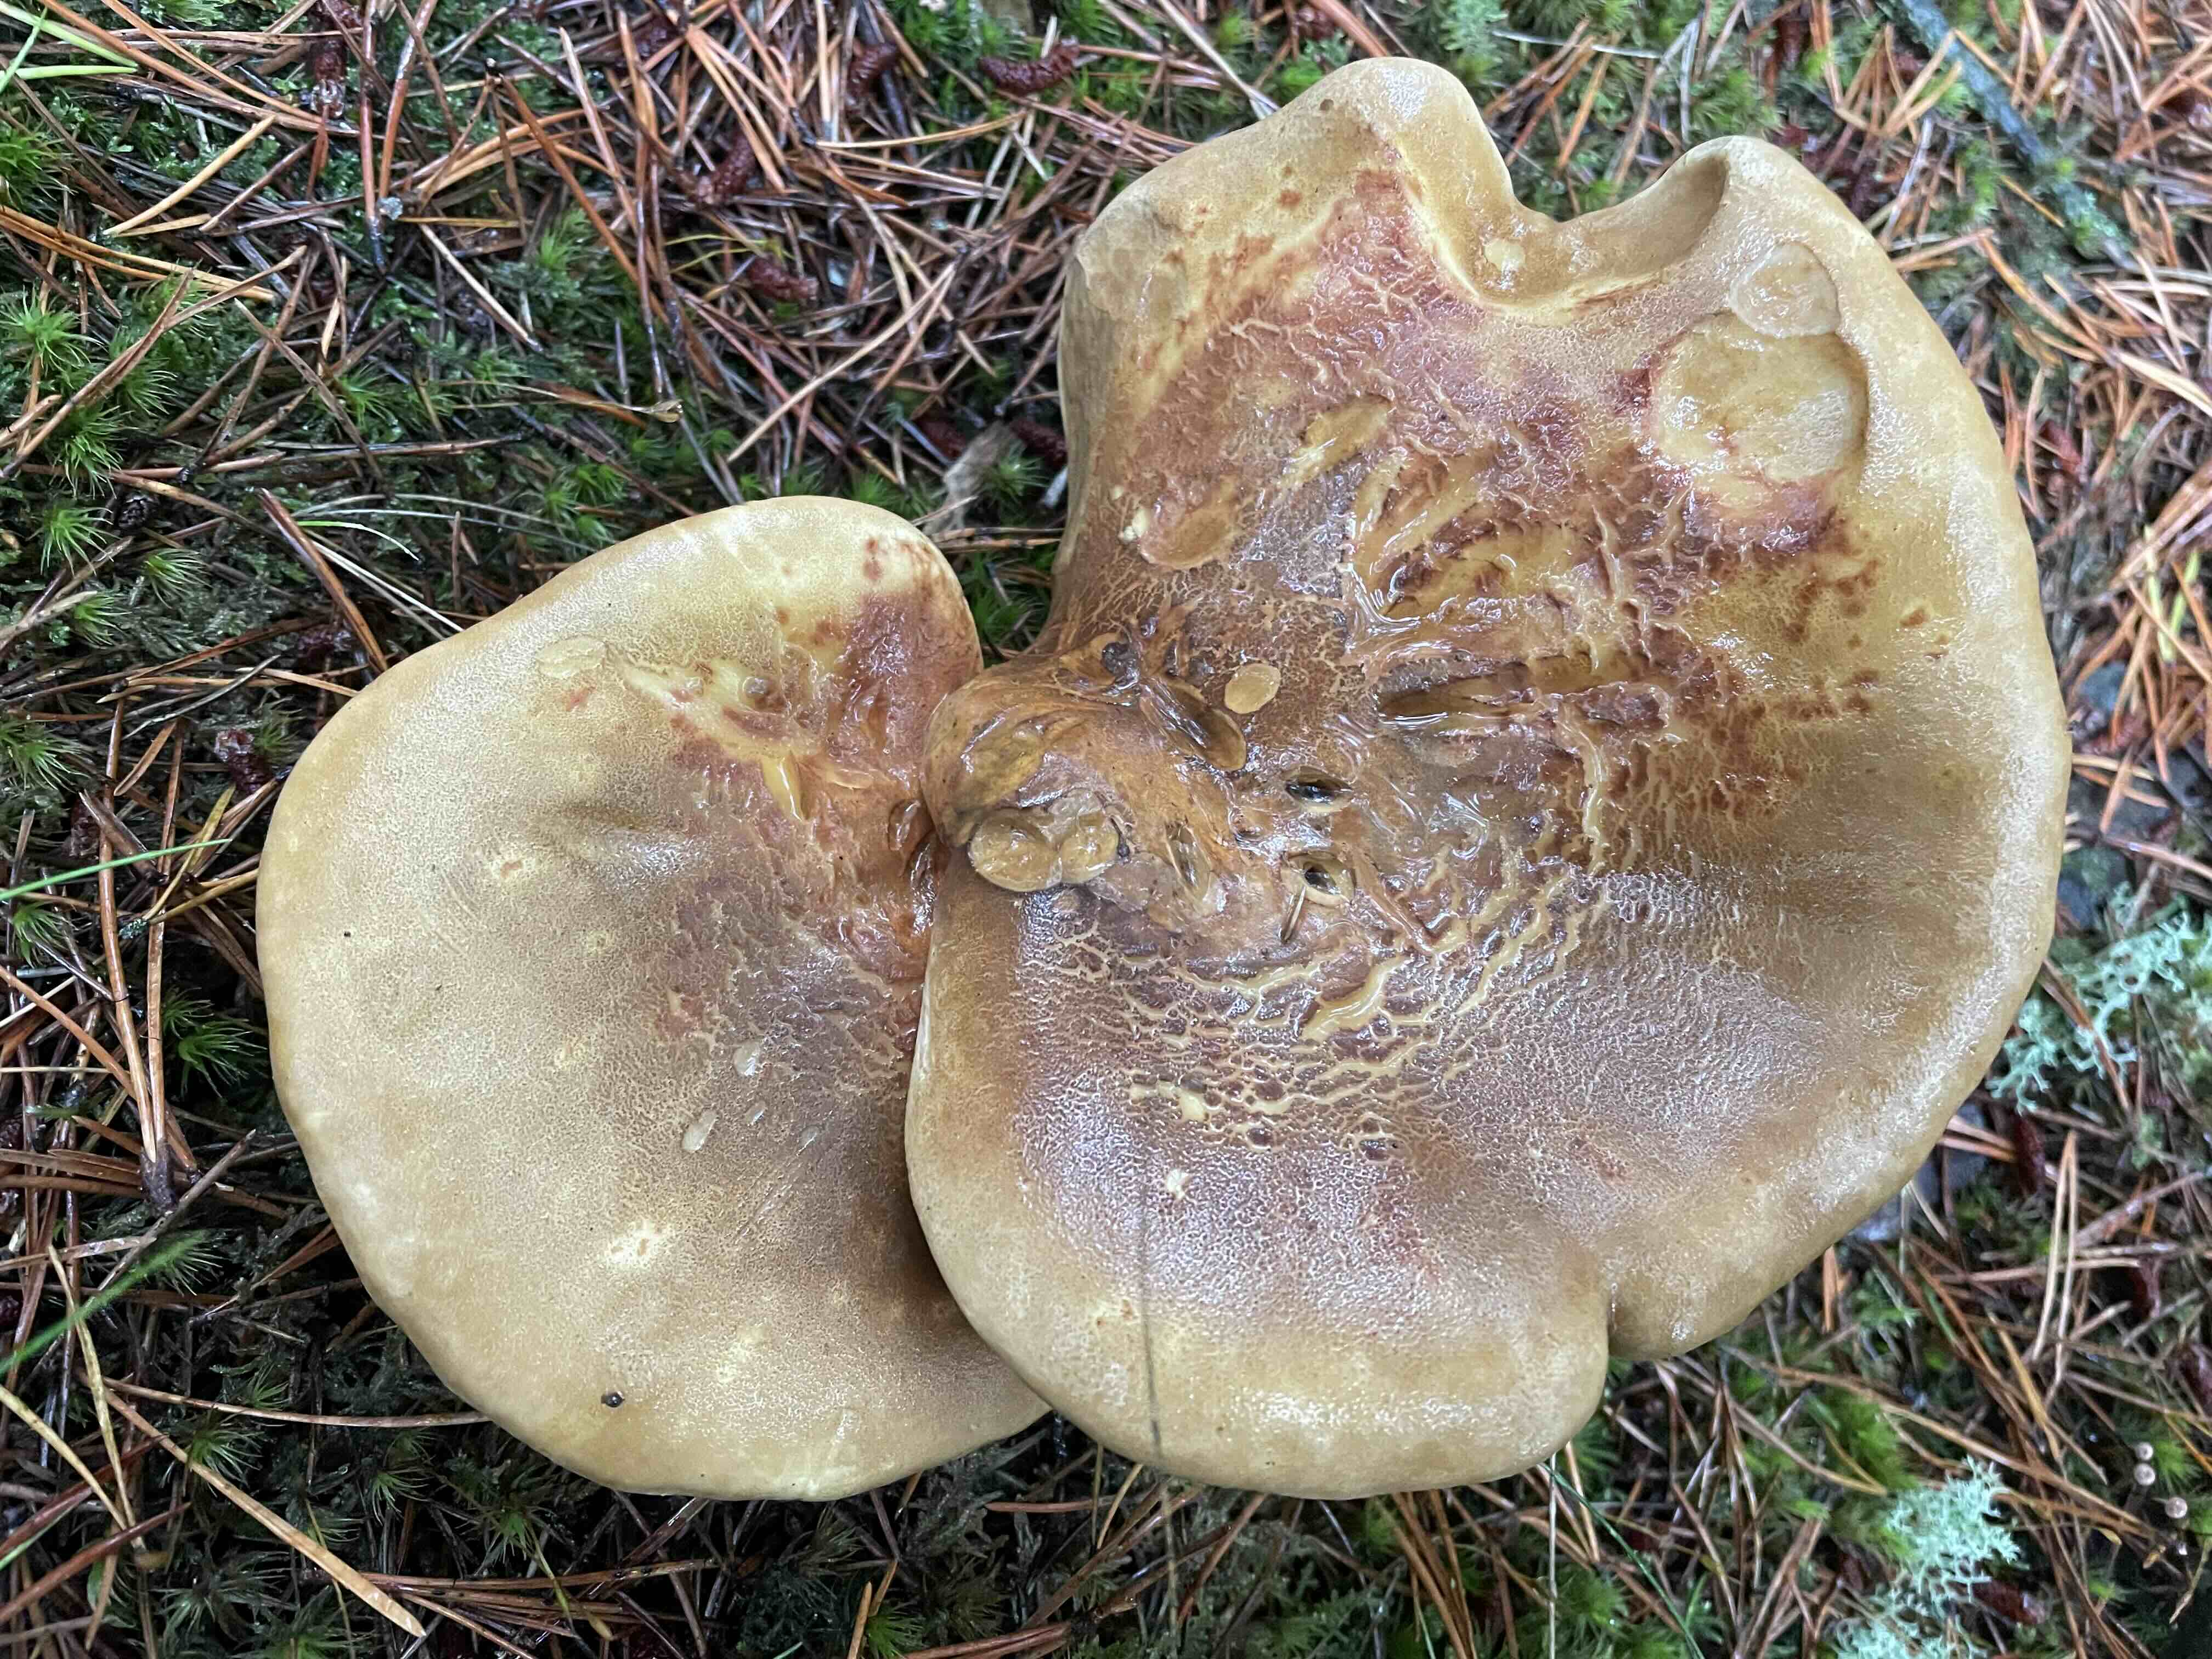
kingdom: Fungi
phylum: Basidiomycota
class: Agaricomycetes
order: Boletales
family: Tapinellaceae
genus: Tapinella
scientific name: Tapinella atrotomentosa
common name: sortfiltet viftesvamp
